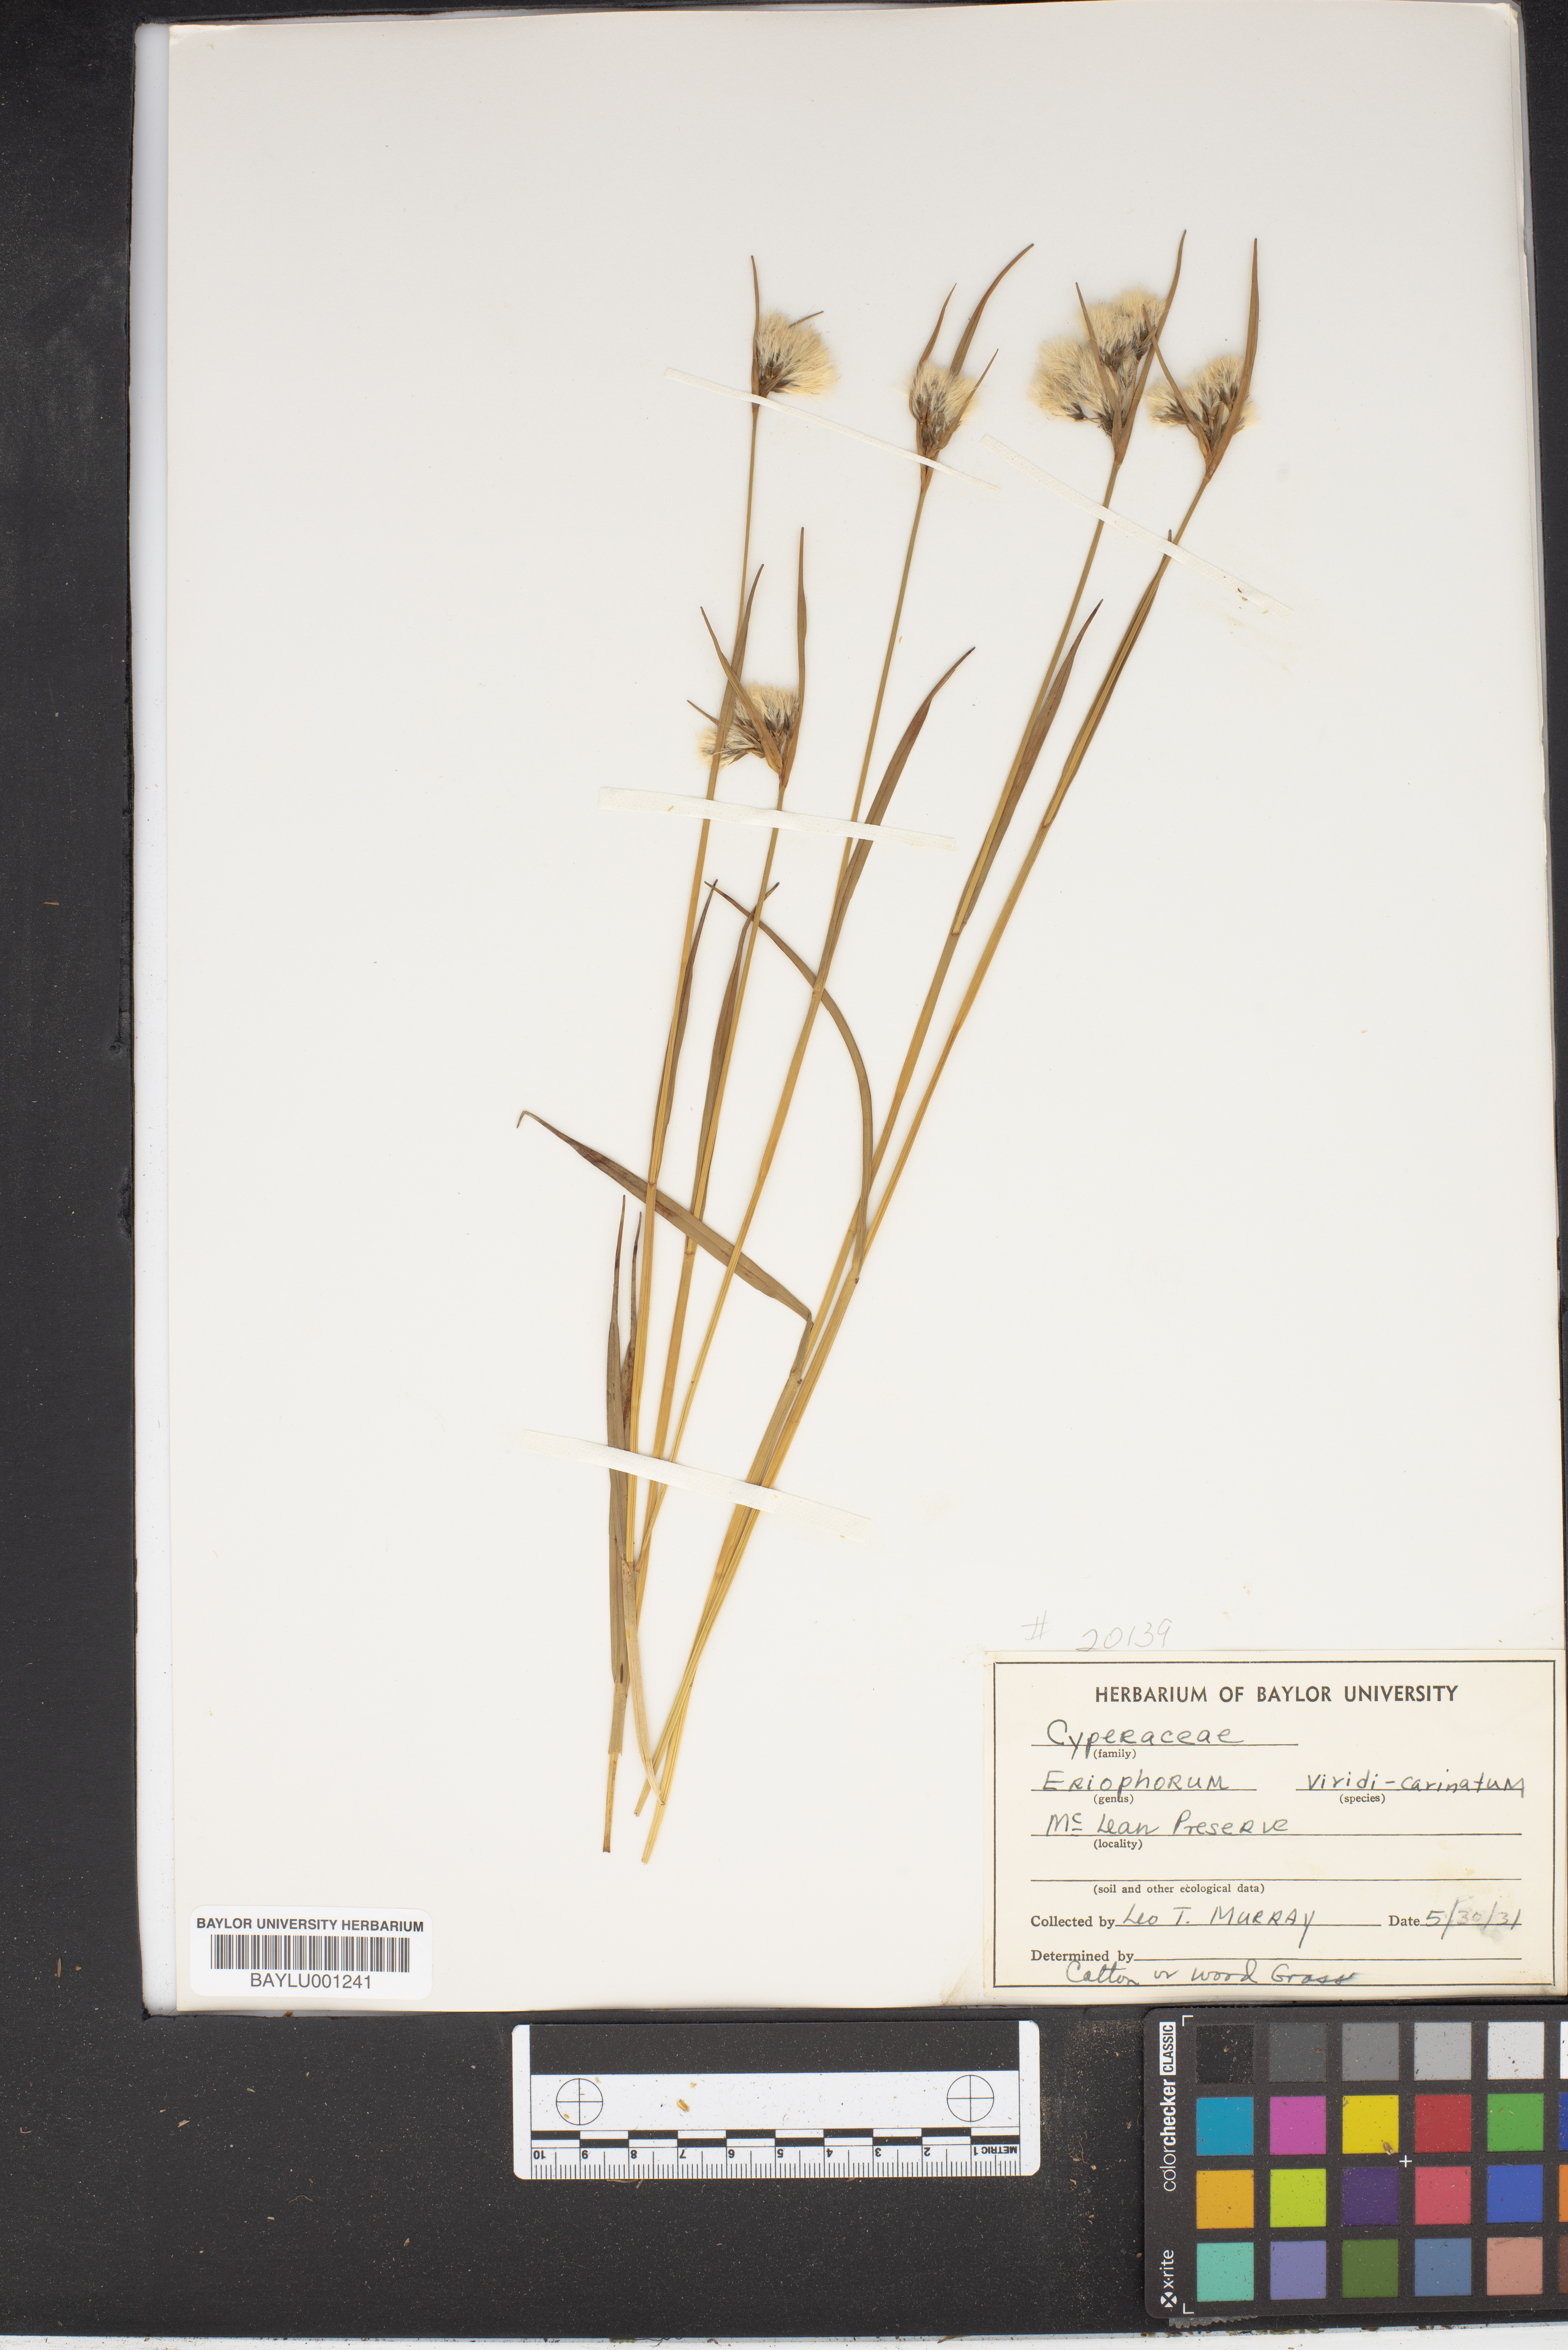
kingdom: Plantae
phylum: Tracheophyta
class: Liliopsida
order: Poales
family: Cyperaceae
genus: Eriophorum
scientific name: Eriophorum viridicarinatum
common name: Green-keeled cottongrass
